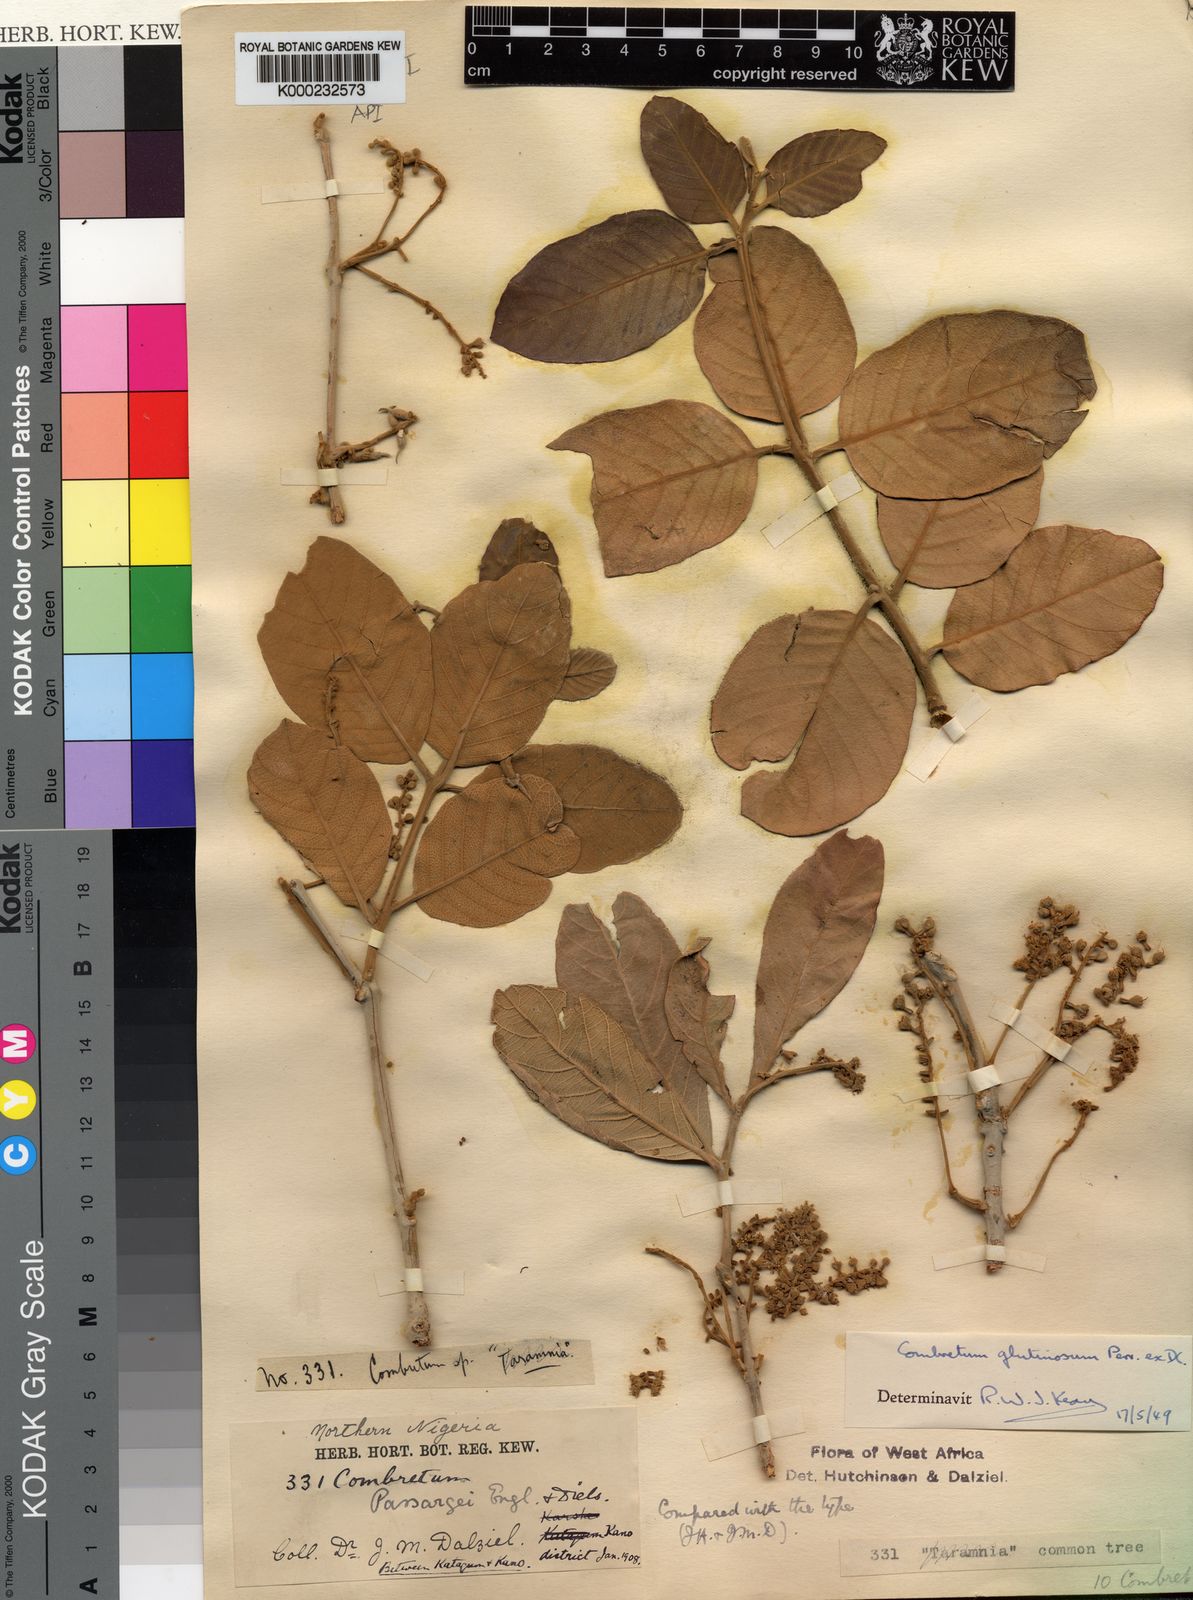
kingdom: Plantae
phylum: Tracheophyta
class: Magnoliopsida
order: Myrtales
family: Combretaceae
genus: Combretum
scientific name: Combretum glutinosum
